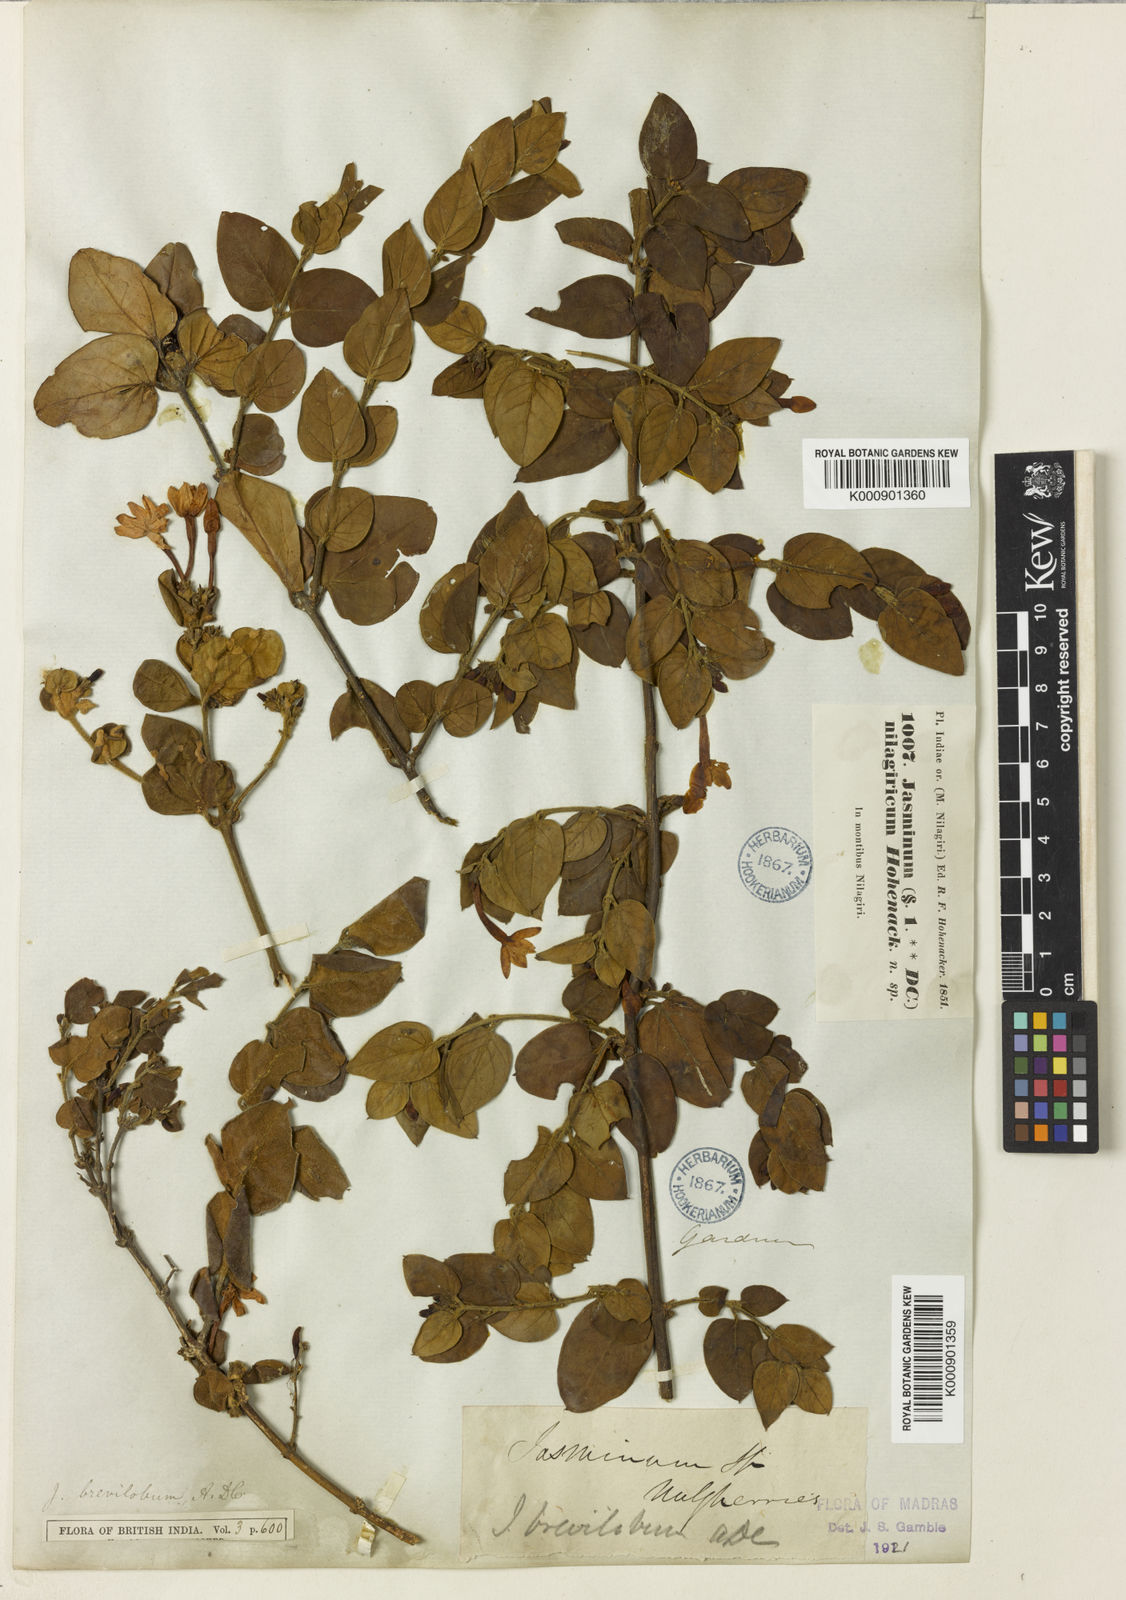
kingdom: Plantae
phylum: Tracheophyta
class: Magnoliopsida
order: Lamiales
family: Oleaceae
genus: Jasminum
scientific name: Jasminum brevilobum
